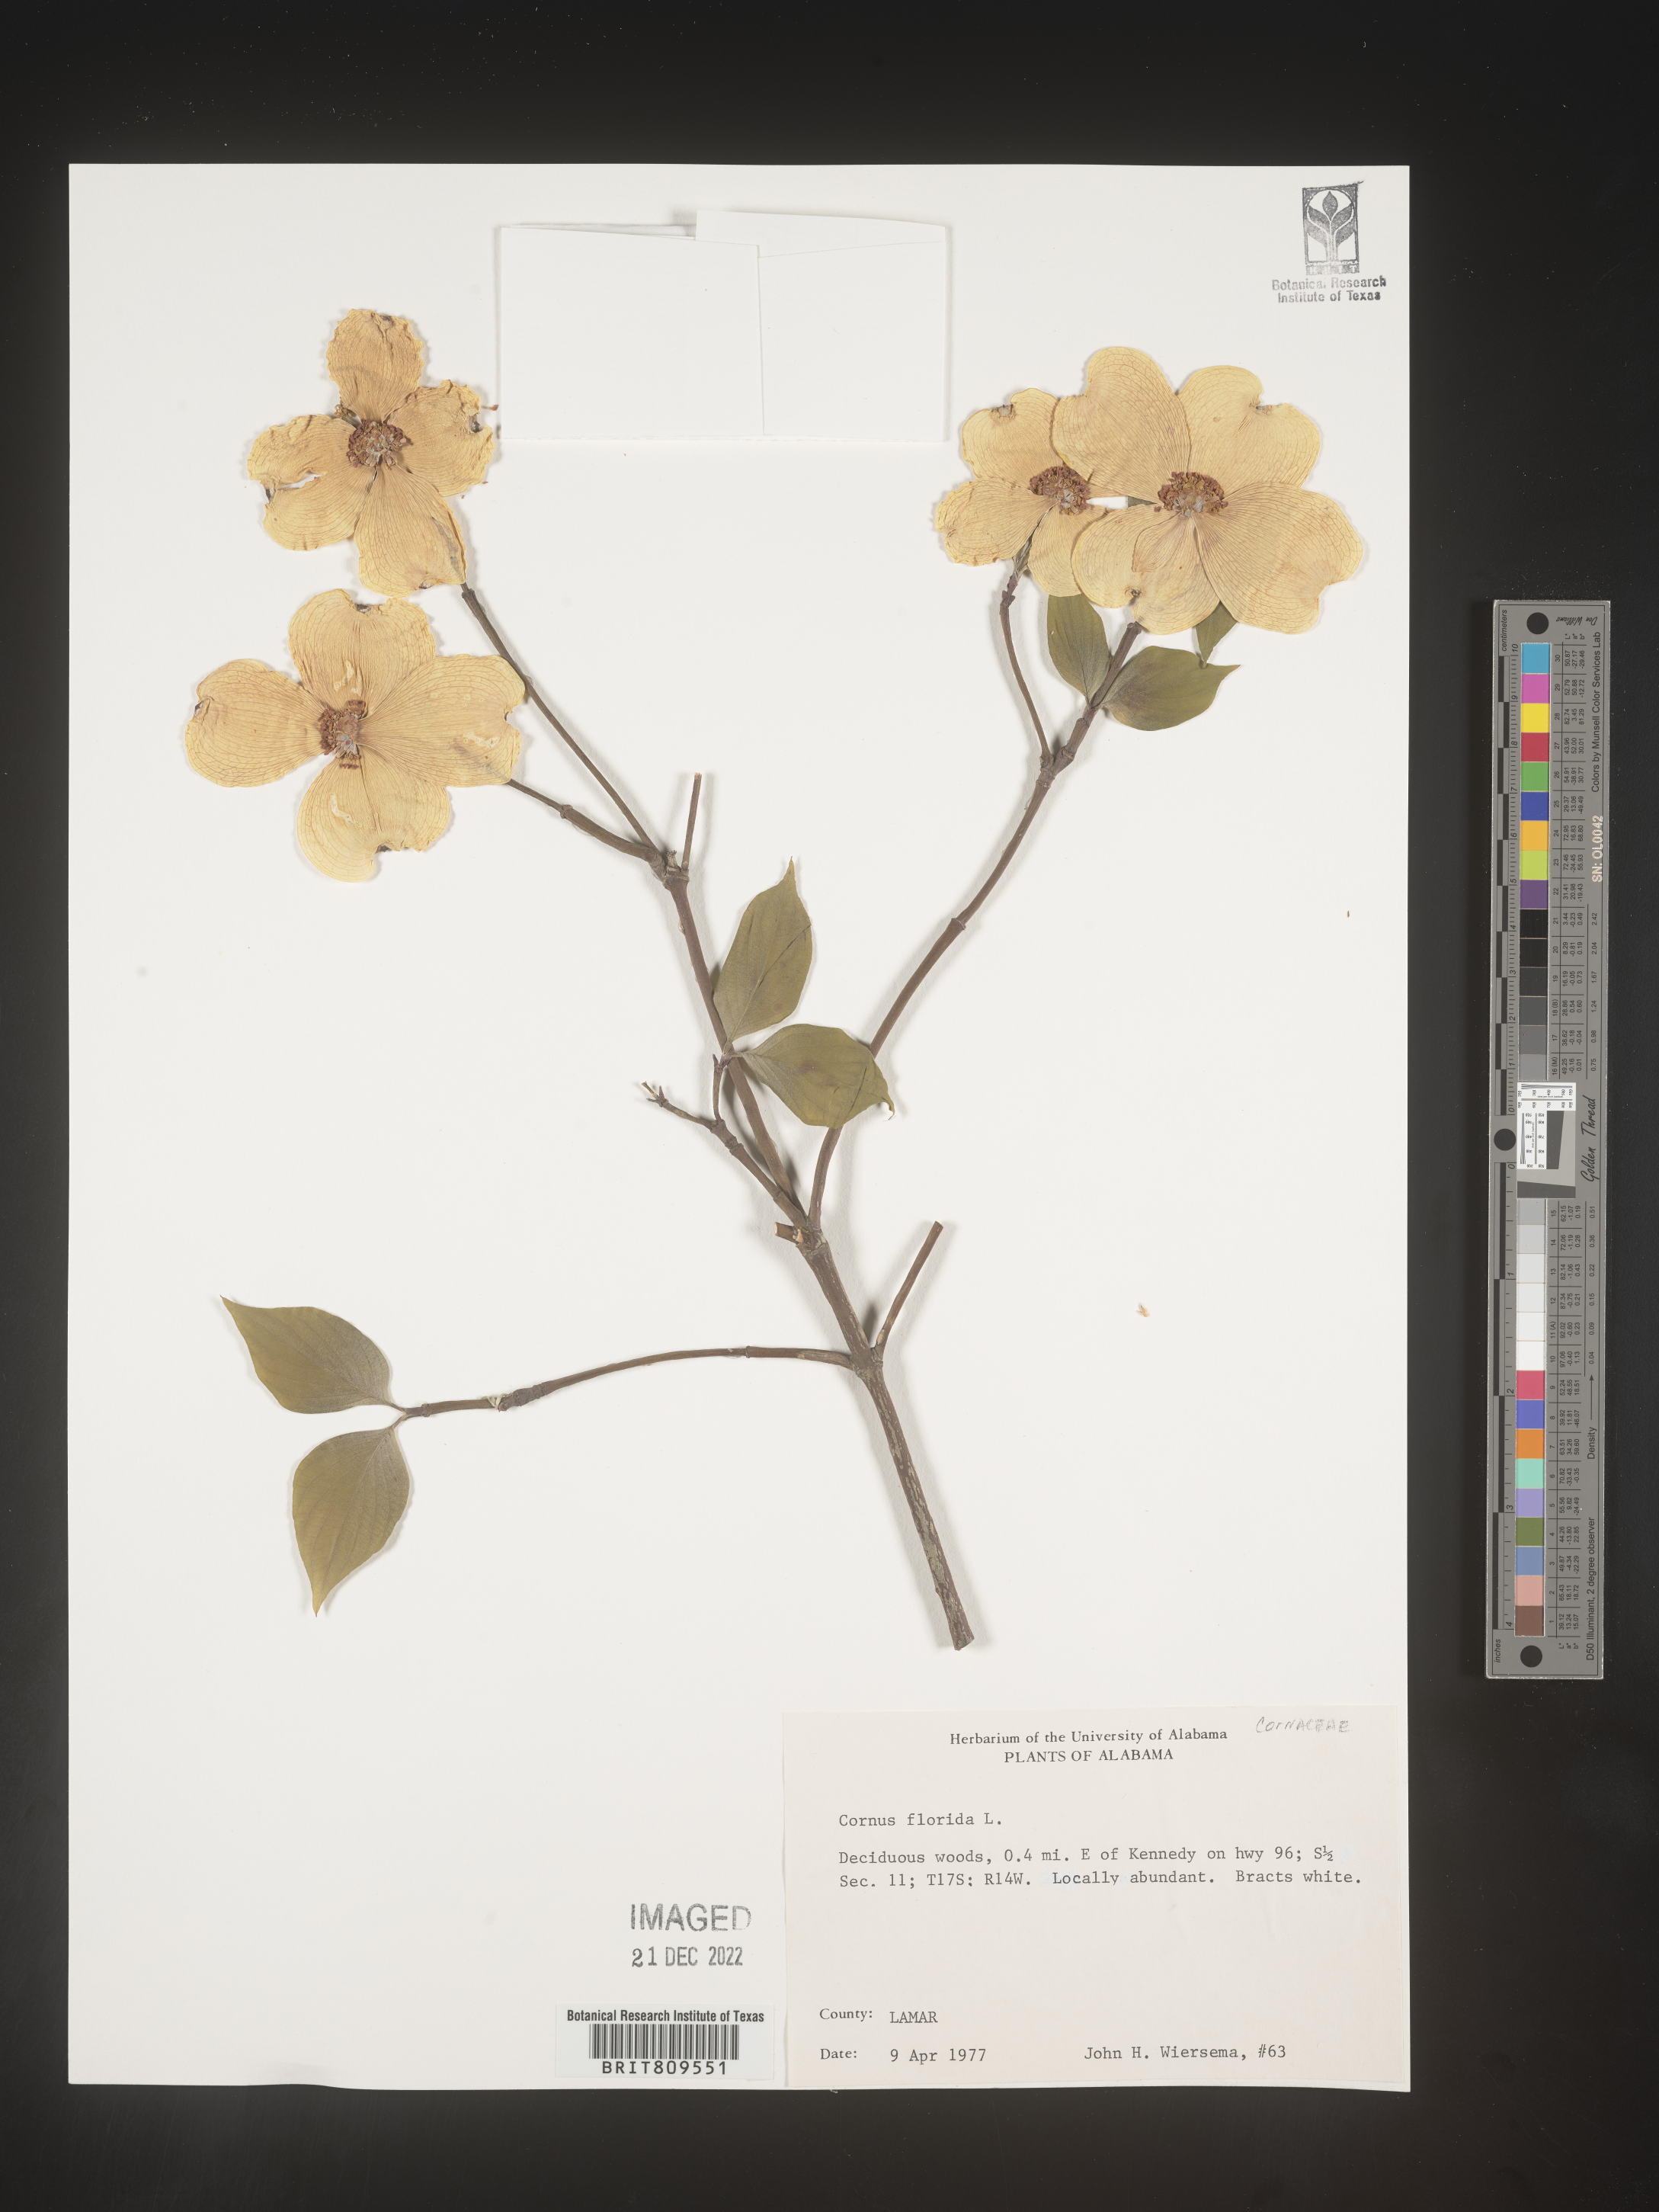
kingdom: Plantae
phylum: Tracheophyta
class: Magnoliopsida
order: Cornales
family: Cornaceae
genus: Cornus
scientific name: Cornus florida
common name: Flowering dogwood
